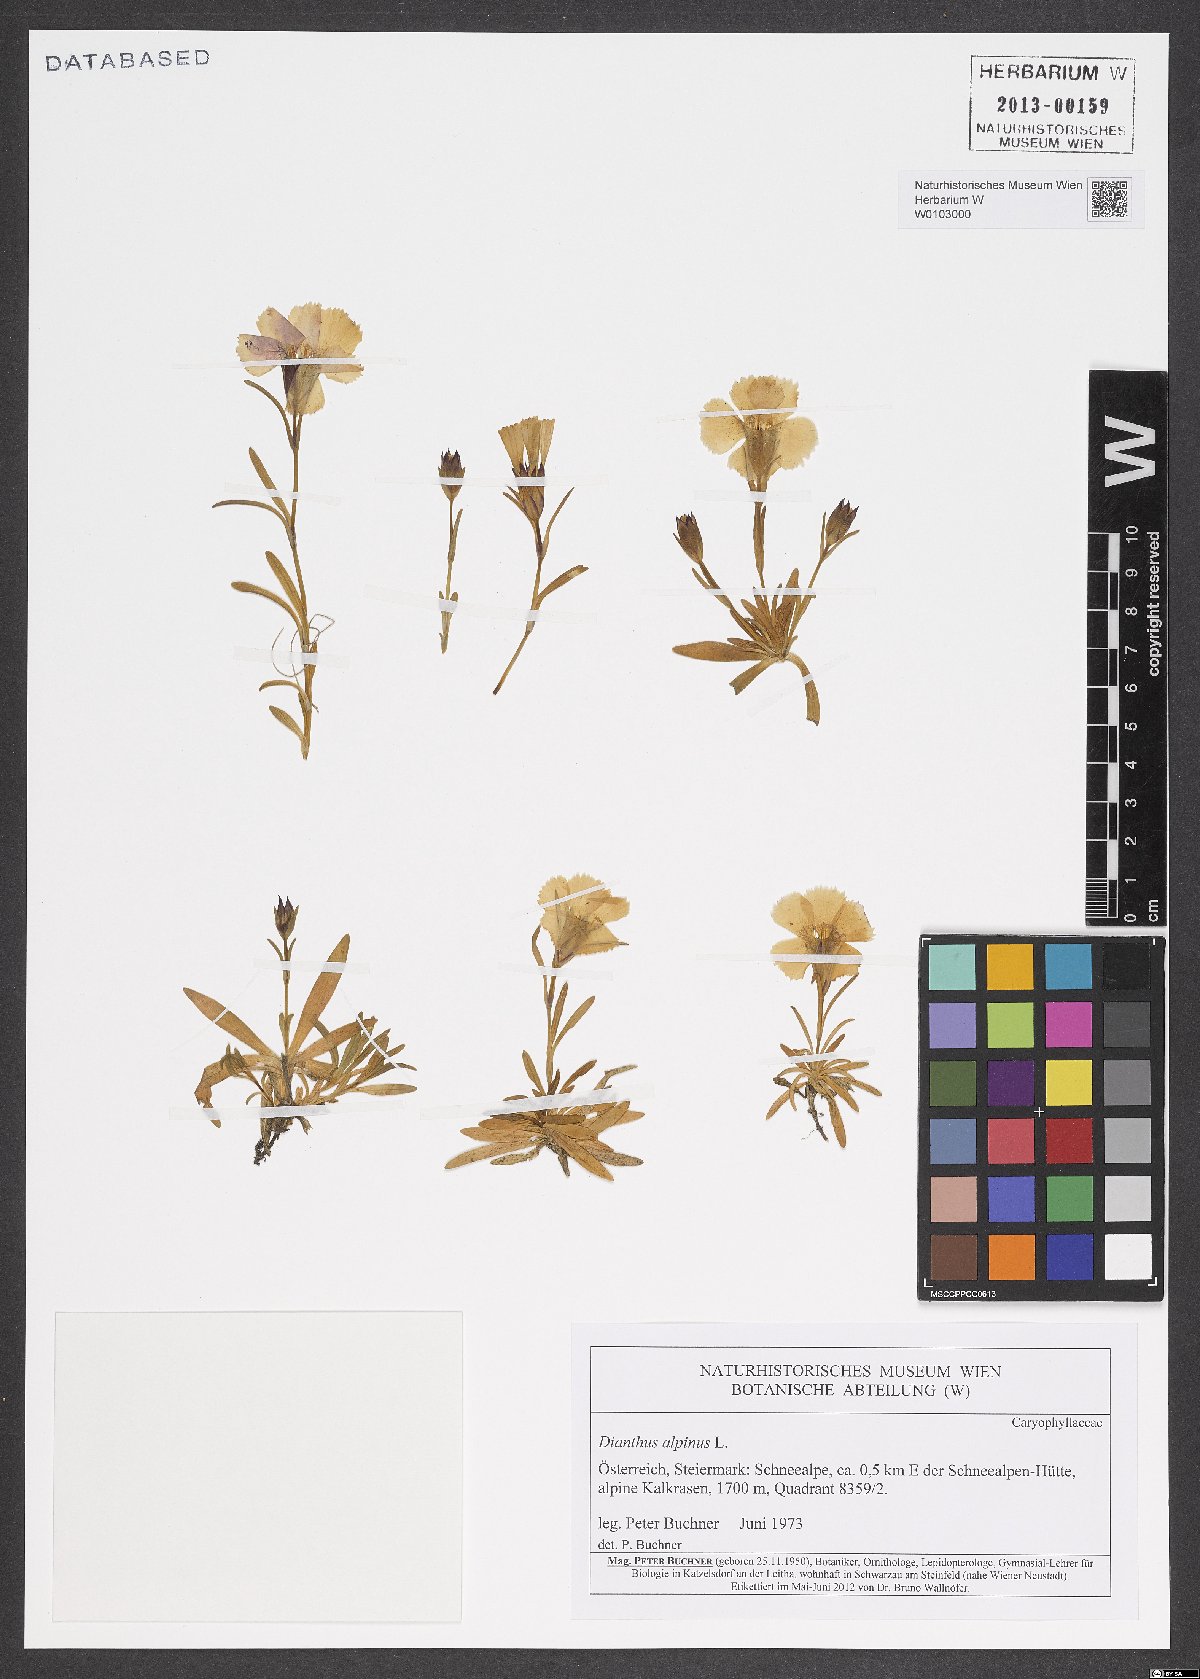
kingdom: Plantae
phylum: Tracheophyta
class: Magnoliopsida
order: Caryophyllales
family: Caryophyllaceae
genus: Dianthus
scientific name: Dianthus alpinus
